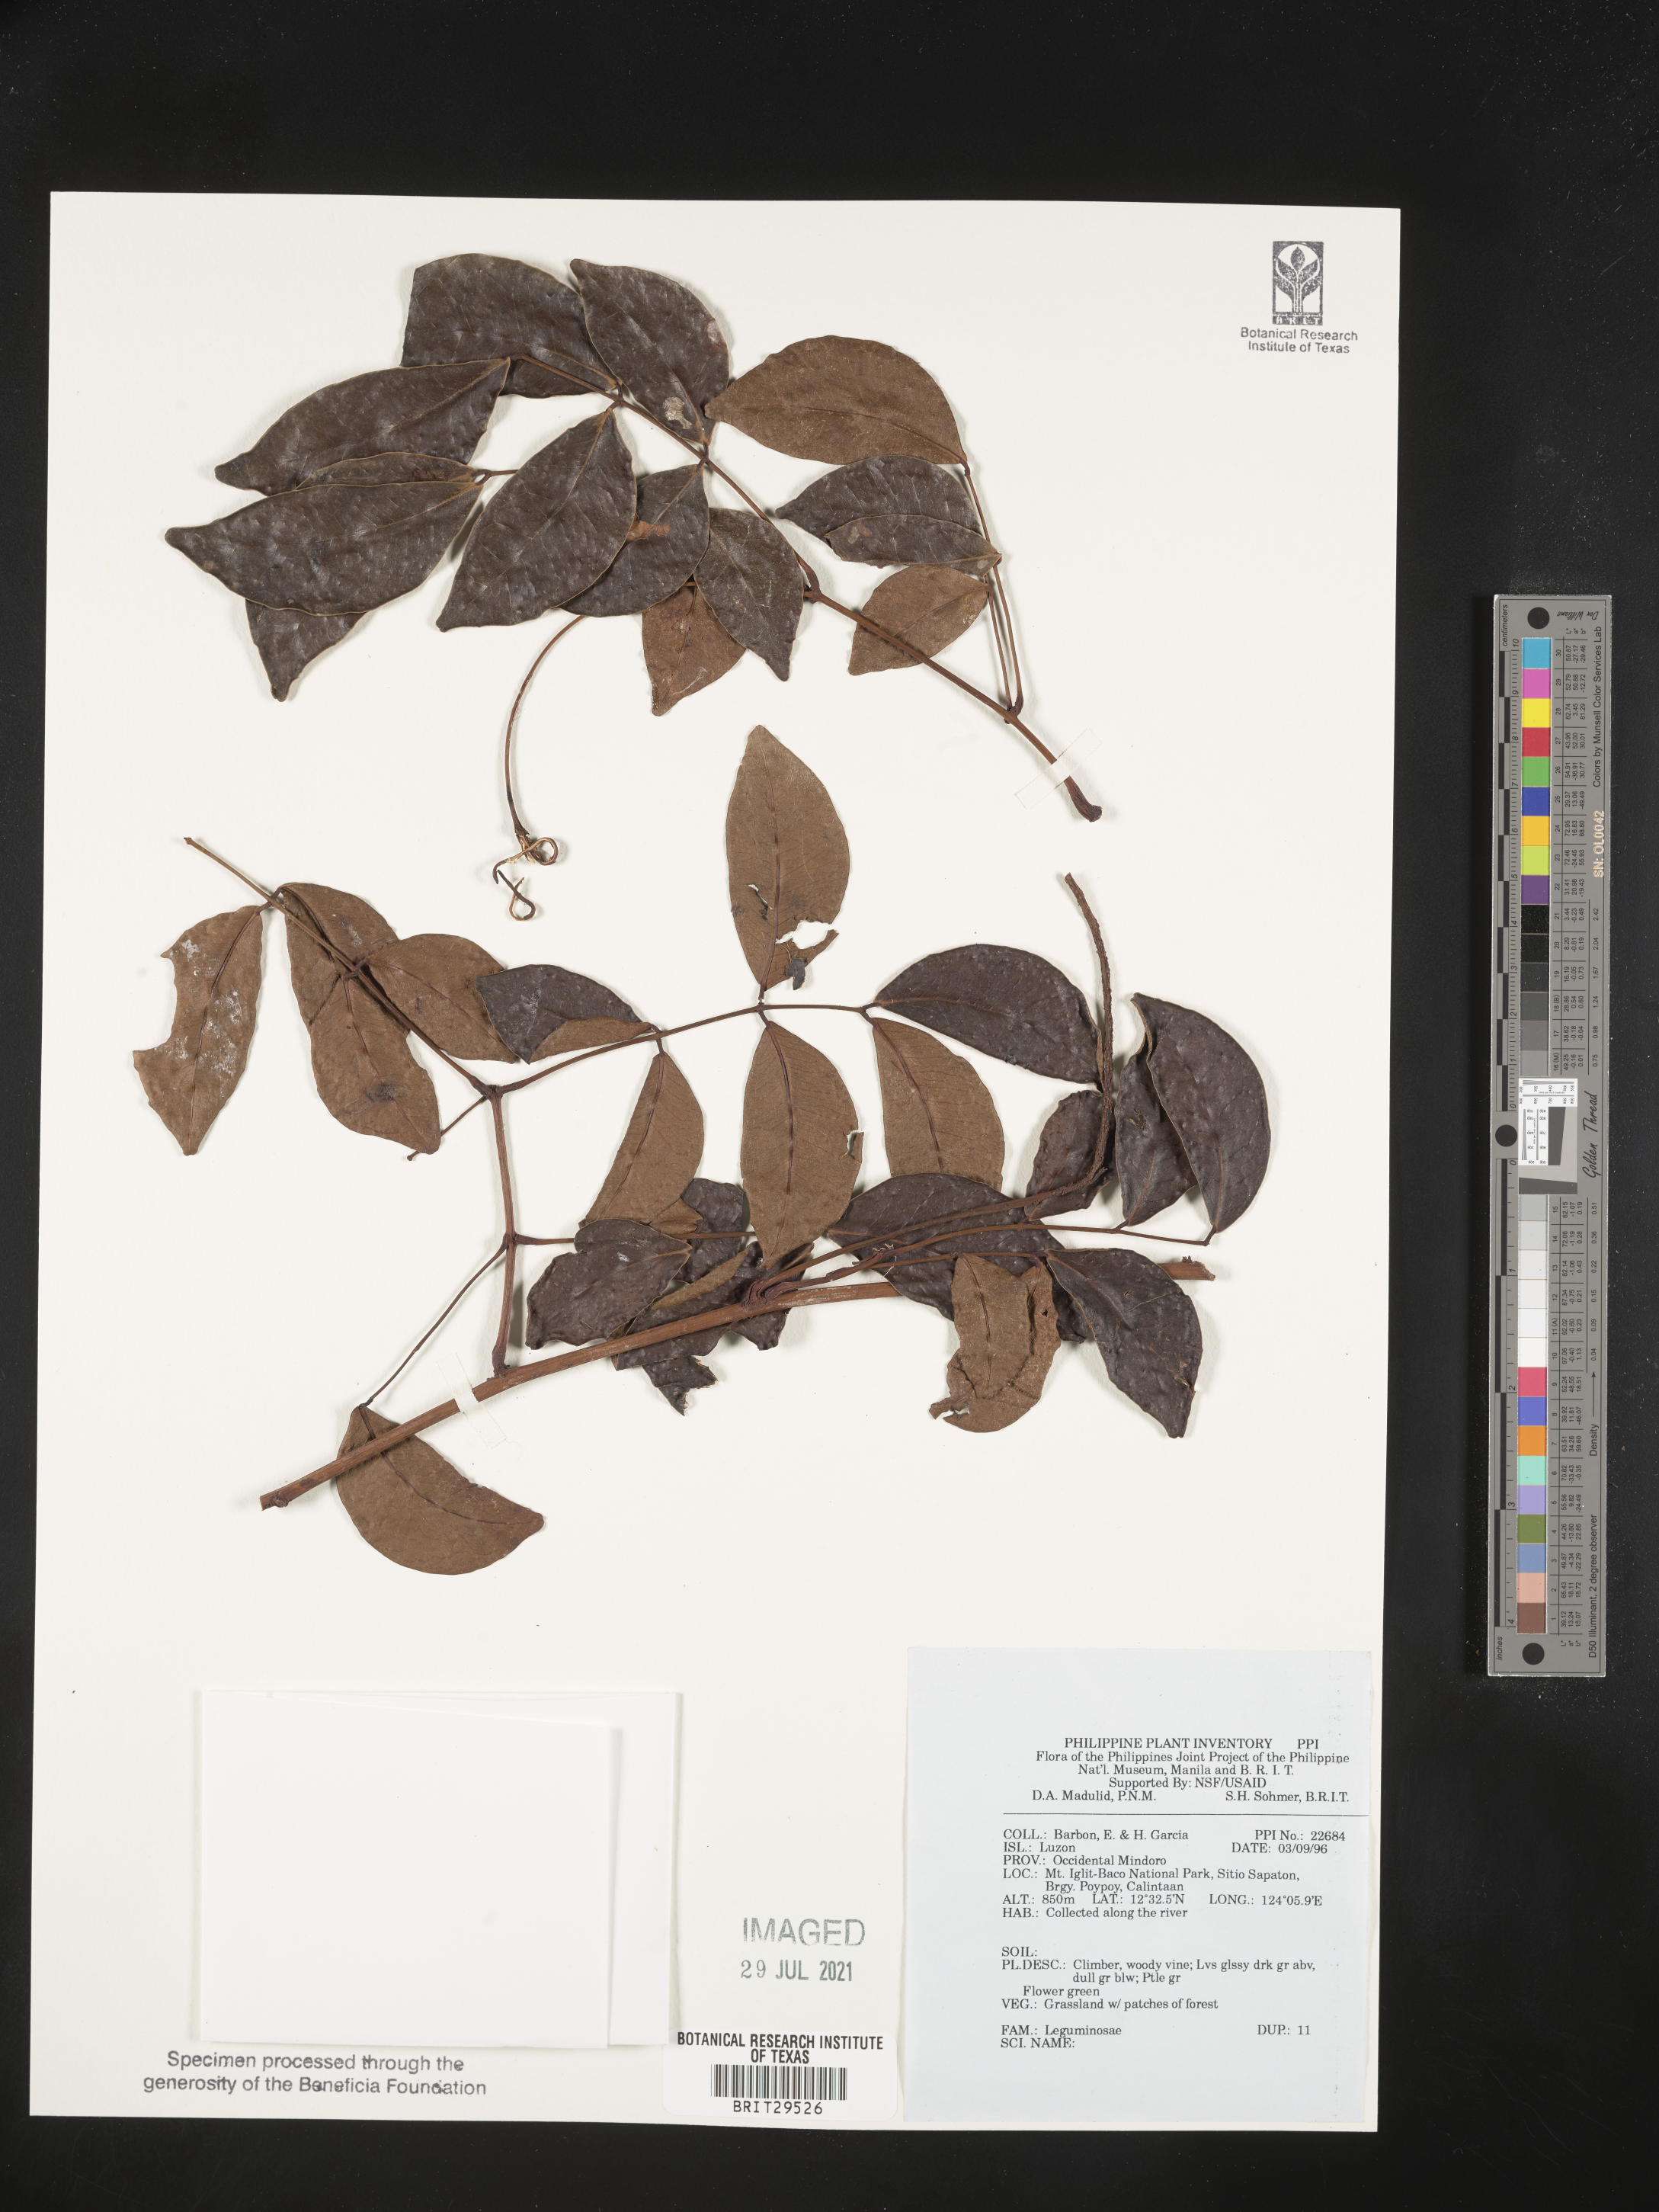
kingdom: Plantae
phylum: Tracheophyta
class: Magnoliopsida
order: Fabales
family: Fabaceae
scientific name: Fabaceae
